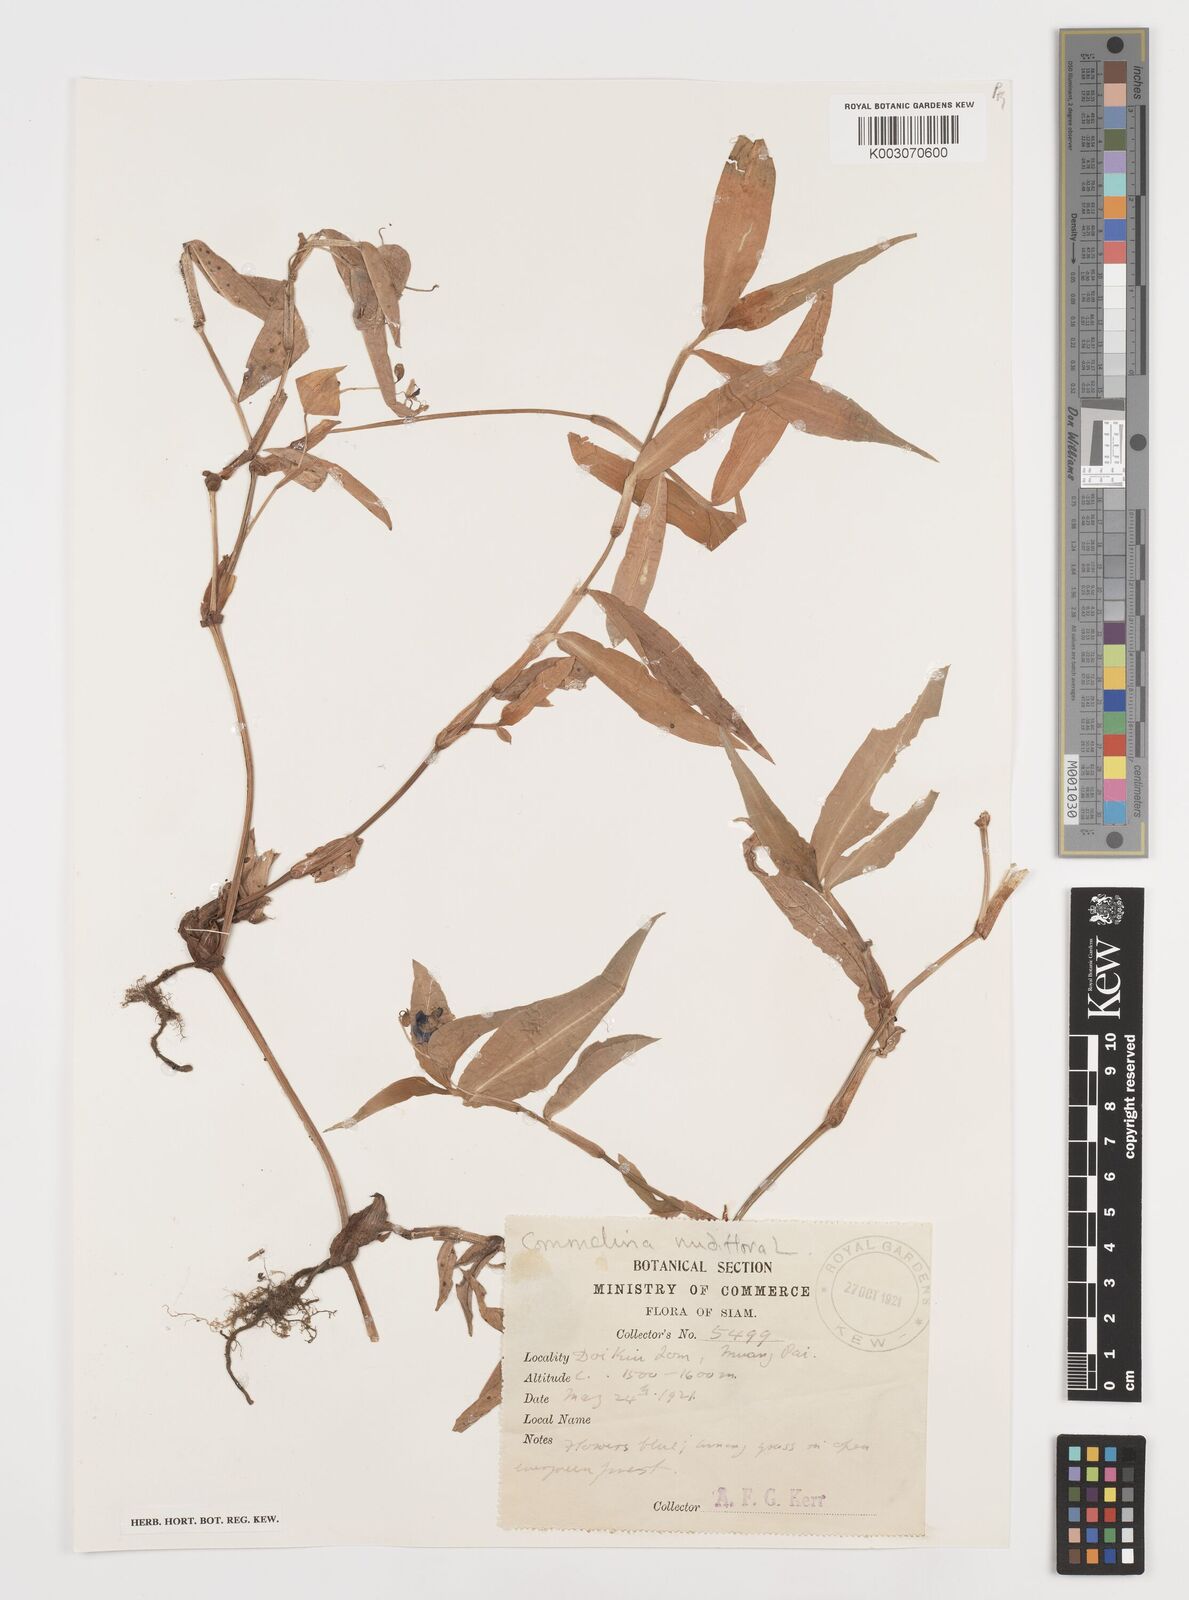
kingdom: Plantae
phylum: Tracheophyta
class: Liliopsida
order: Commelinales
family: Commelinaceae
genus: Commelina
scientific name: Commelina clavata
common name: Willow leaved dayflower
